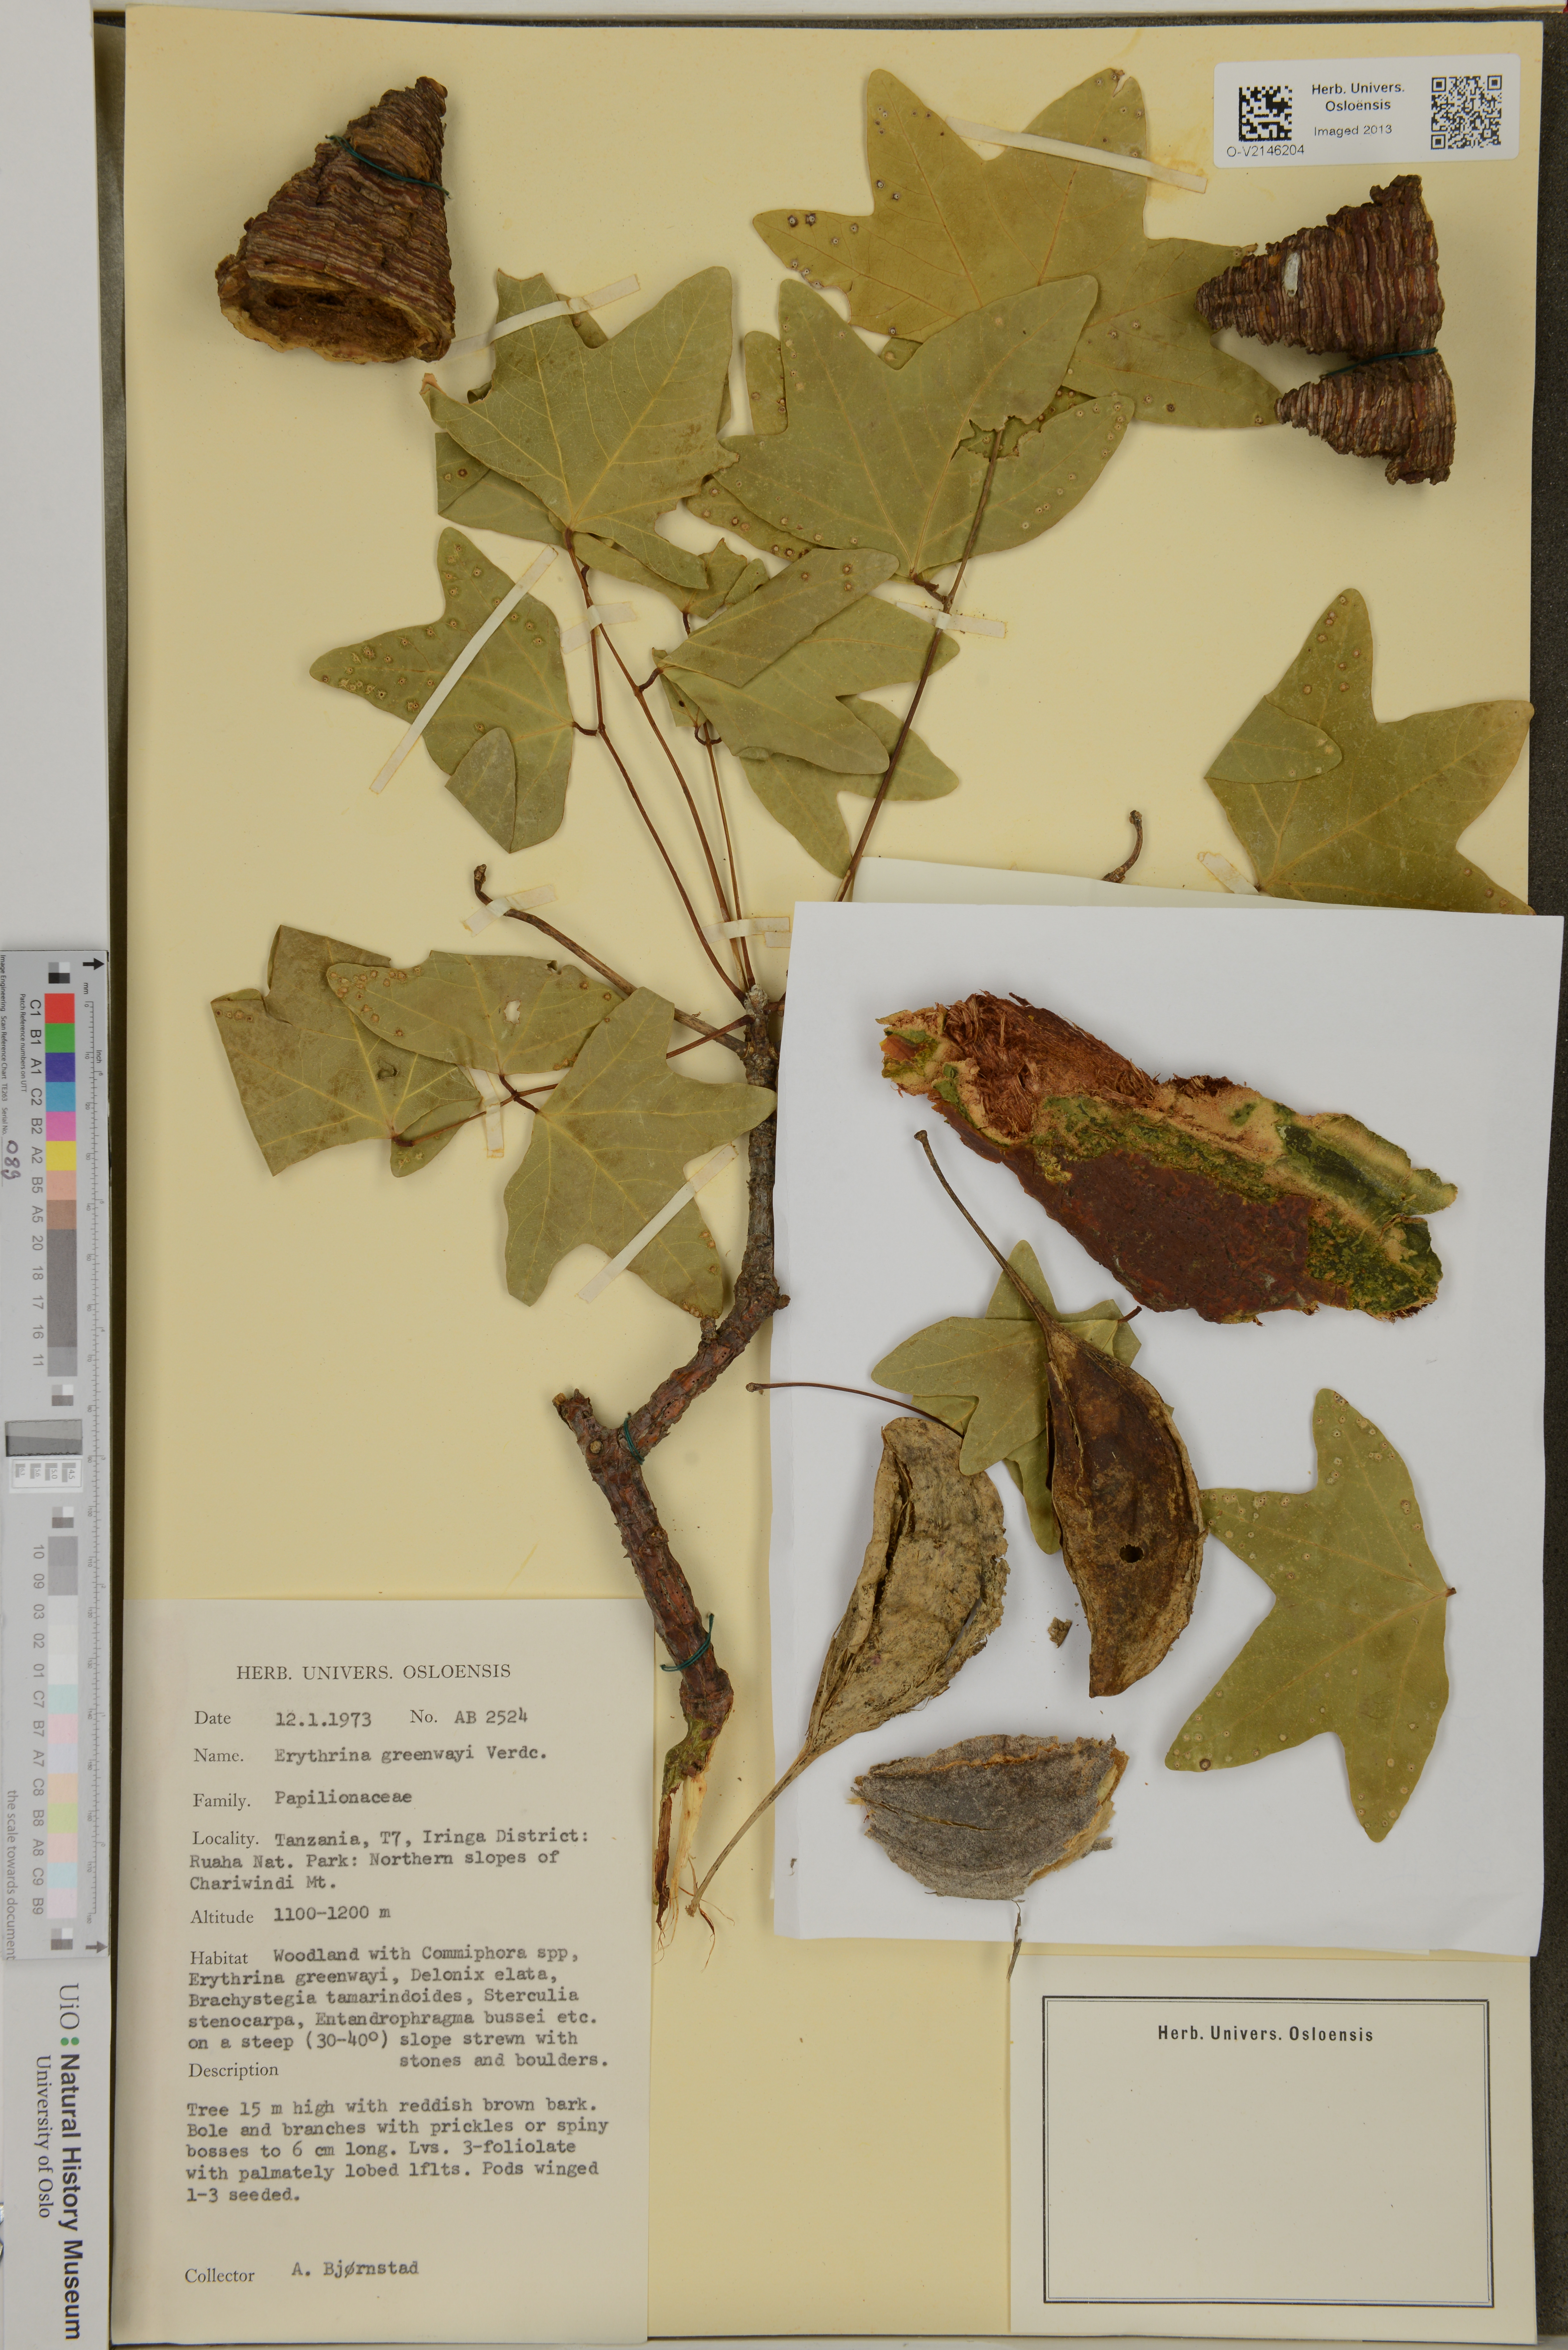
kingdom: Plantae
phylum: Tracheophyta
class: Magnoliopsida
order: Fabales
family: Fabaceae
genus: Erythrina
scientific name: Erythrina greenwayi
